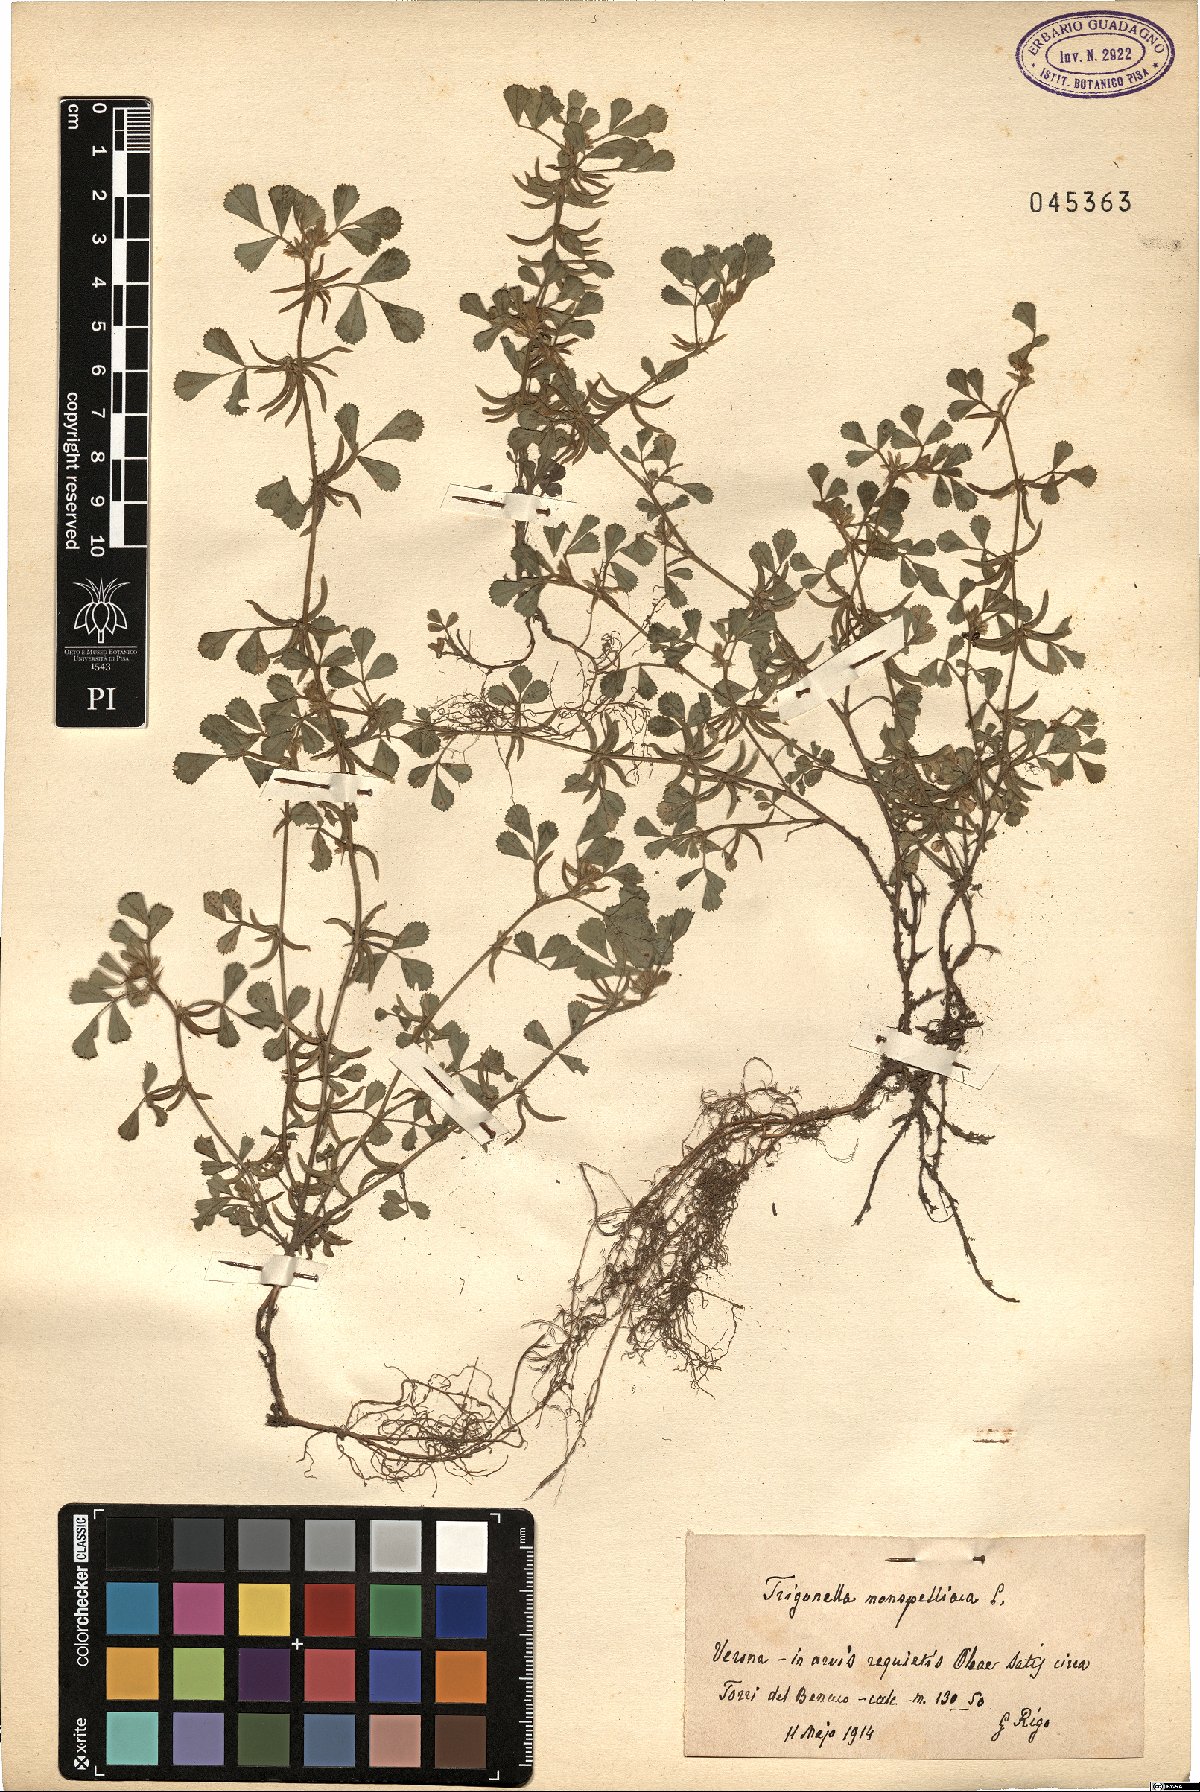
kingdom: Plantae
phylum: Tracheophyta
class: Magnoliopsida
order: Fabales
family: Fabaceae
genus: Medicago
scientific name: Medicago monspeliaca
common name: Hairy medick
